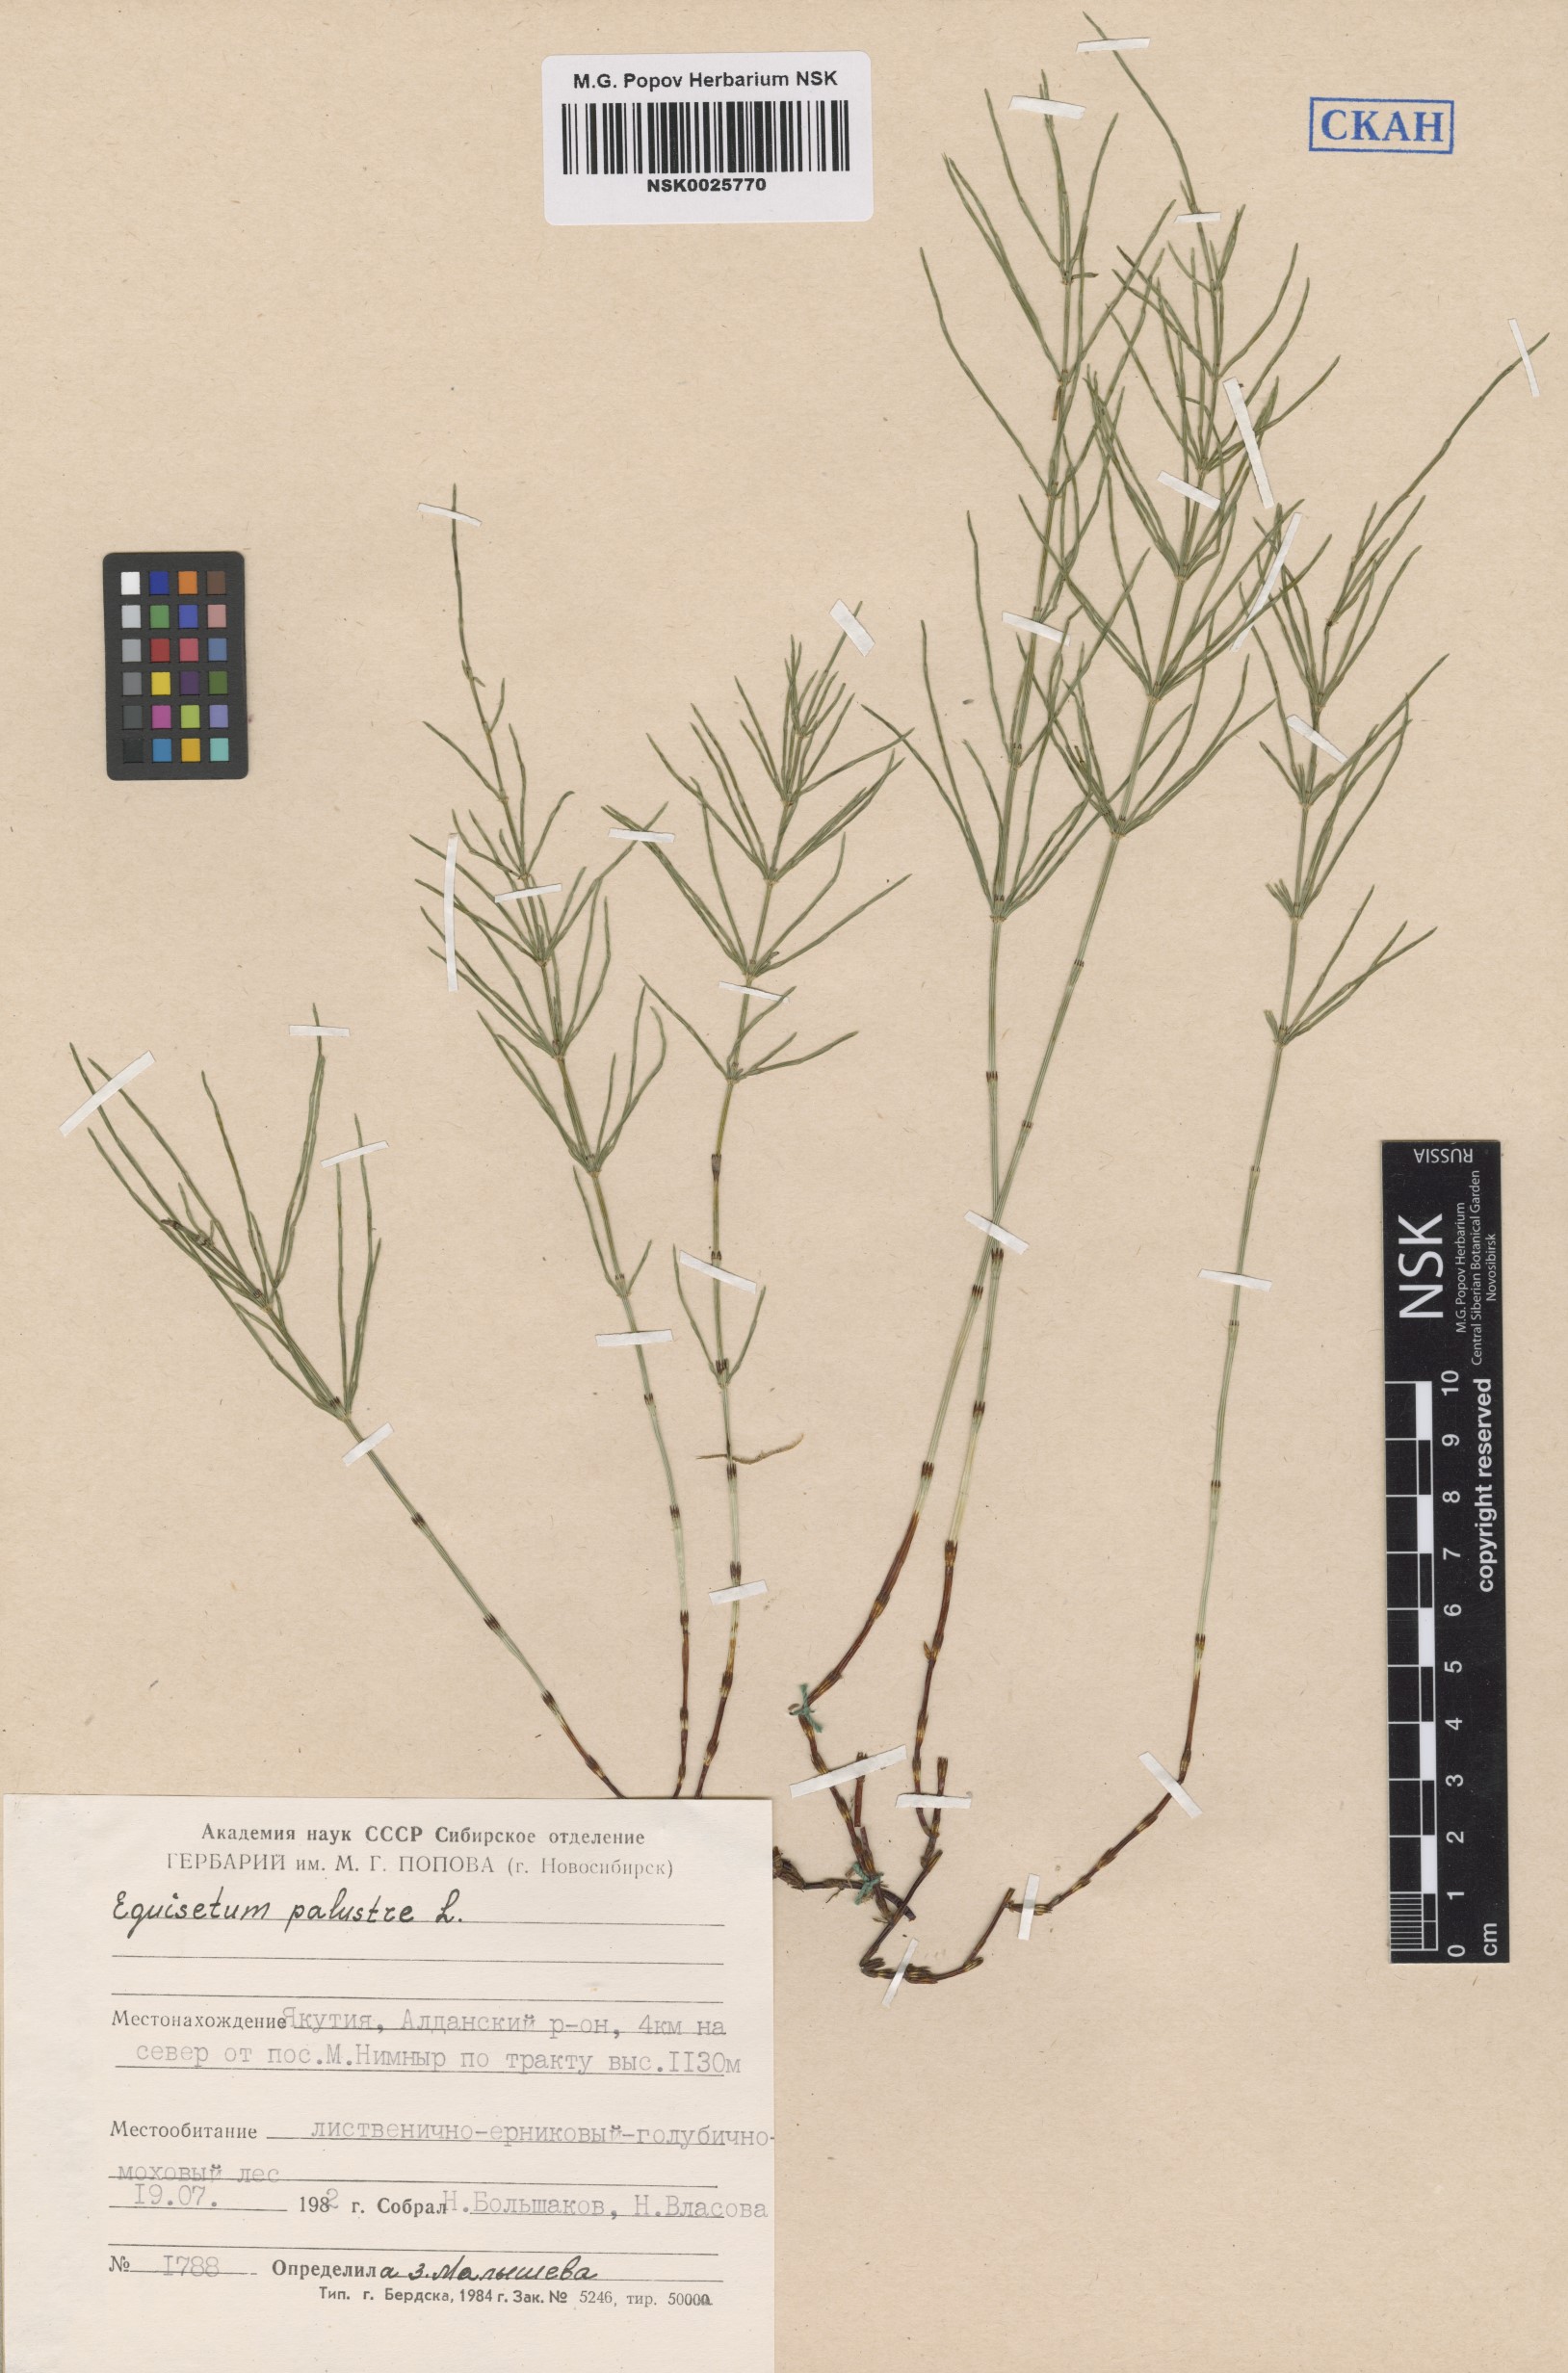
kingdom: Plantae
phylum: Tracheophyta
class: Polypodiopsida
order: Equisetales
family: Equisetaceae
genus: Equisetum
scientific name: Equisetum palustre
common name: Marsh horsetail
